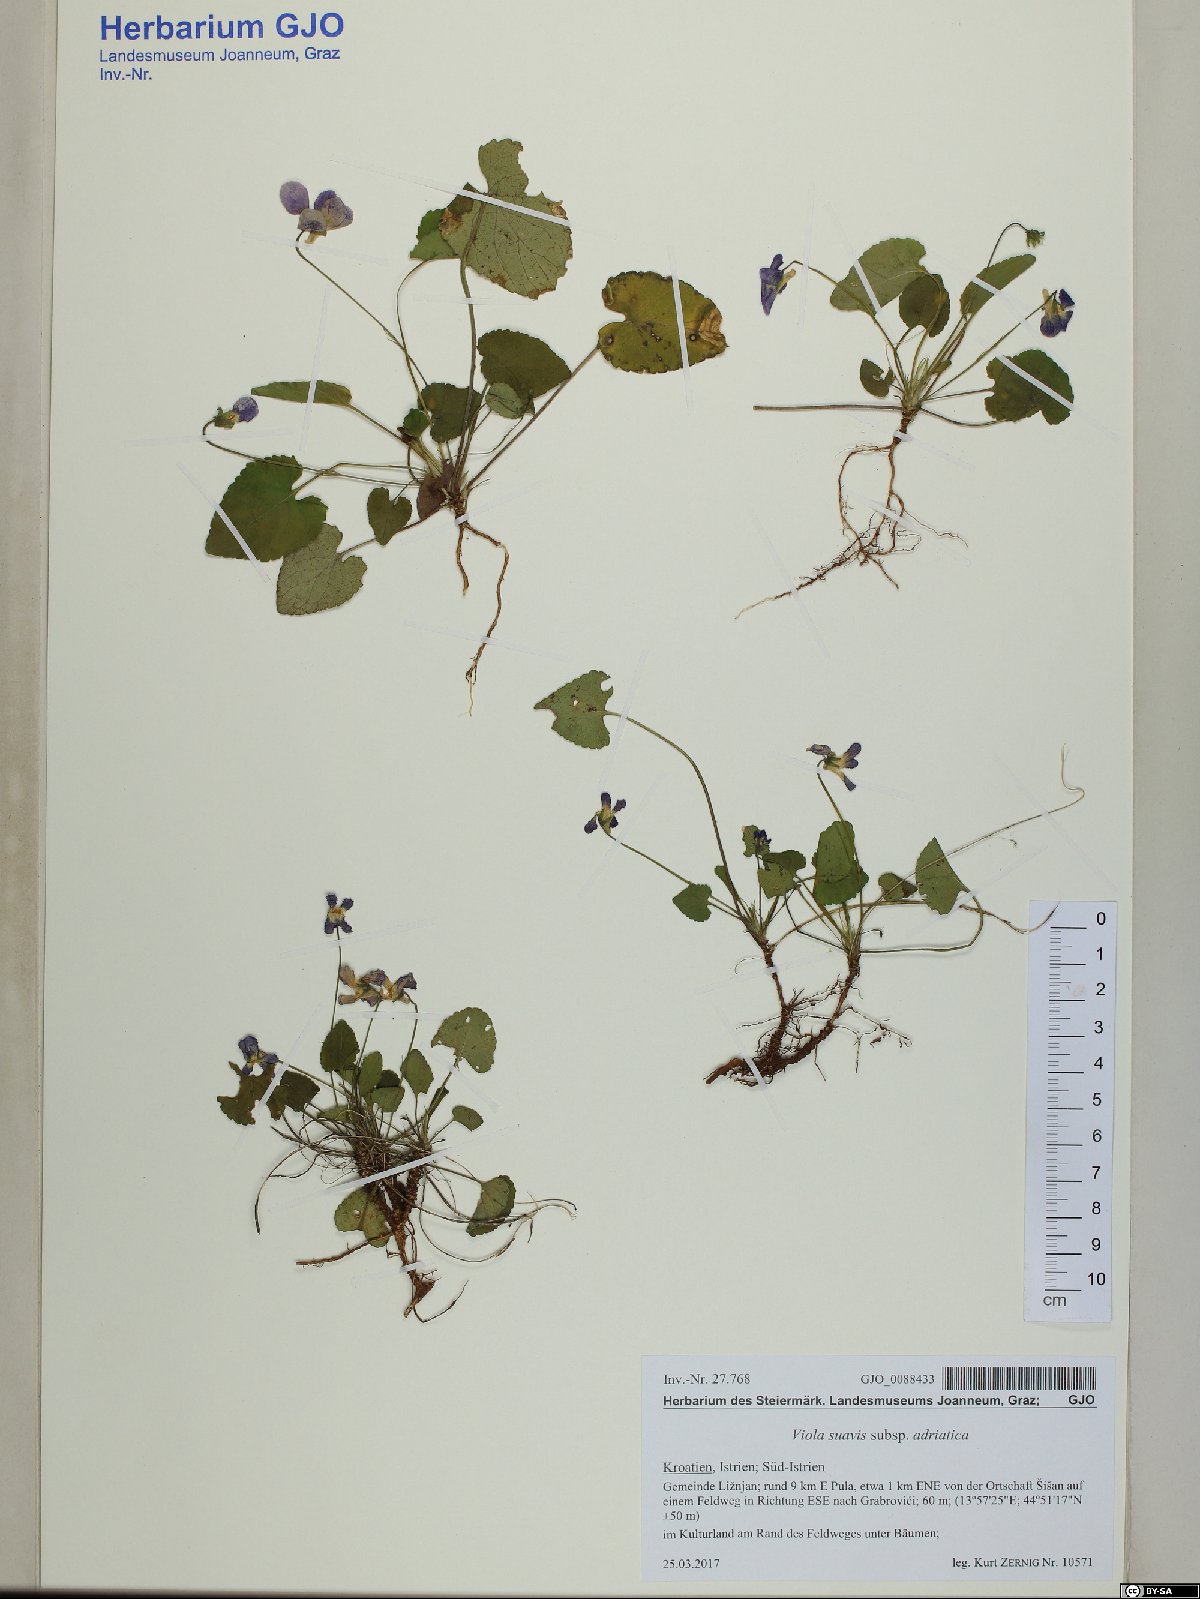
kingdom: Plantae
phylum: Tracheophyta
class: Magnoliopsida
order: Malpighiales
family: Violaceae
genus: Viola
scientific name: Viola suavis
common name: Russian violet
